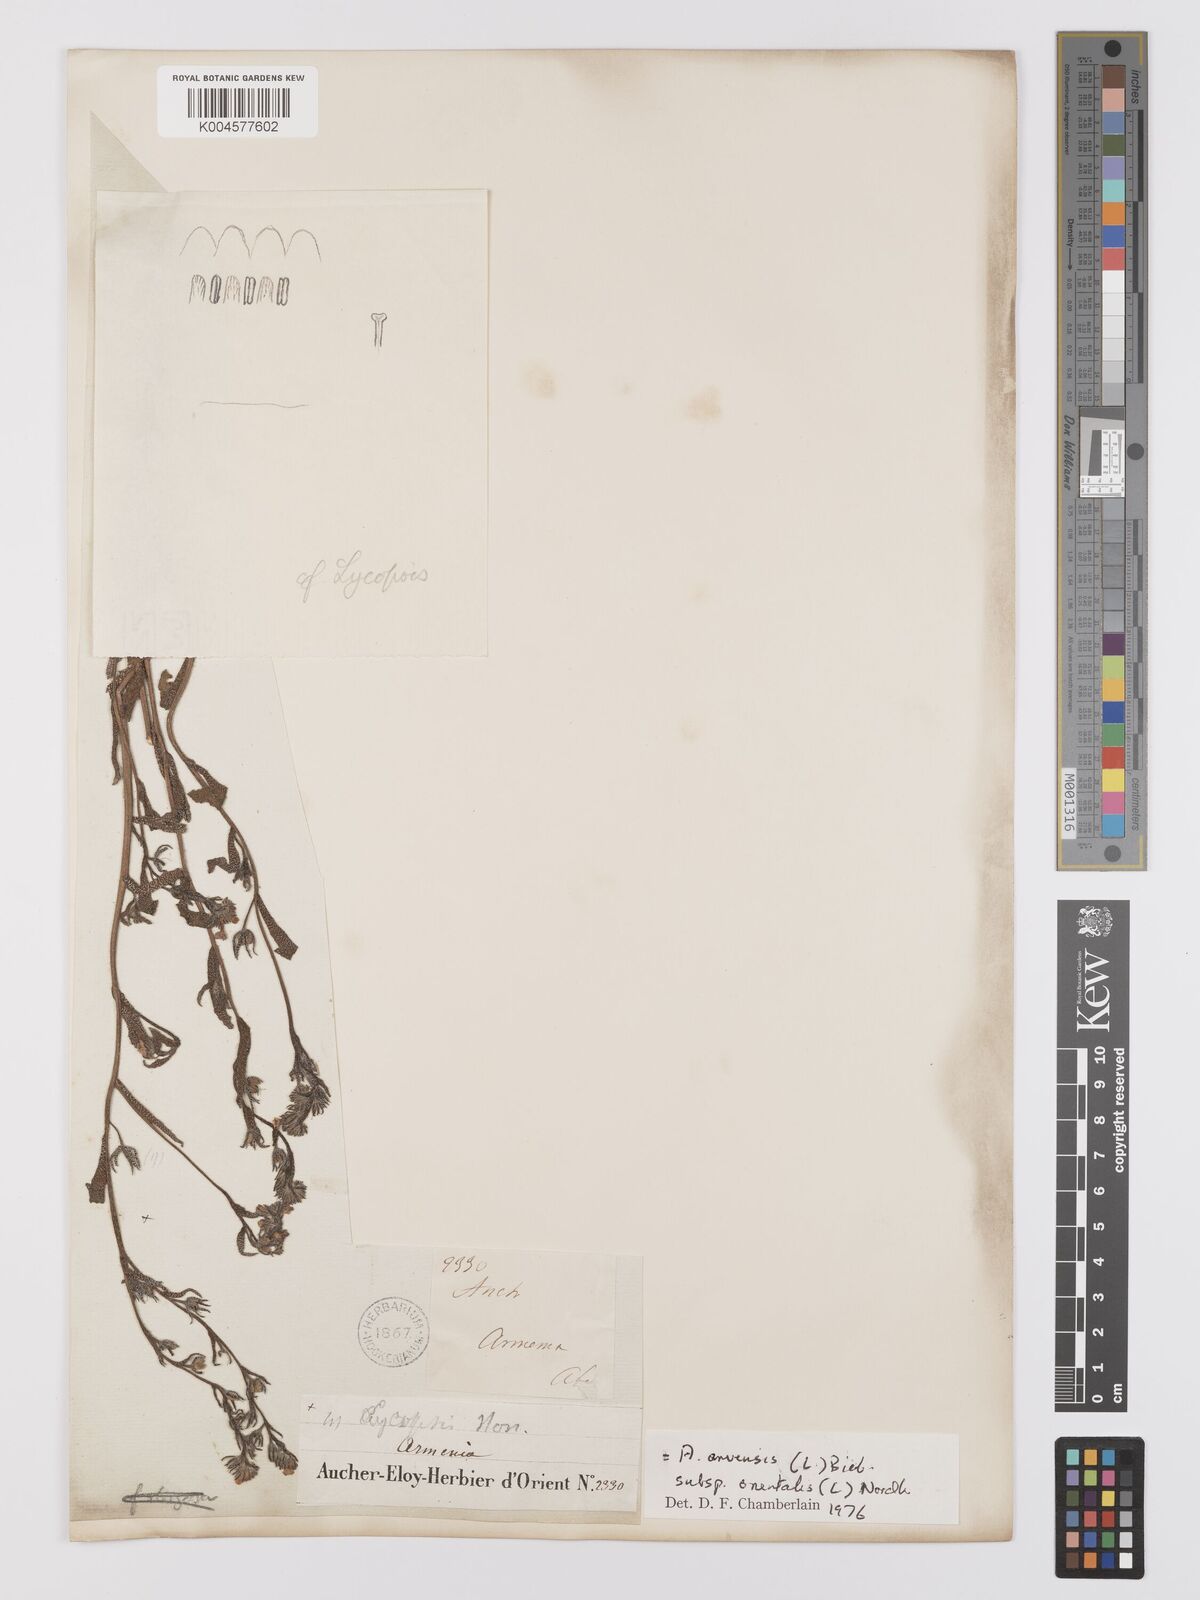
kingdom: Plantae
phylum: Tracheophyta
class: Magnoliopsida
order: Boraginales
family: Boraginaceae
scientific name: Boraginaceae
